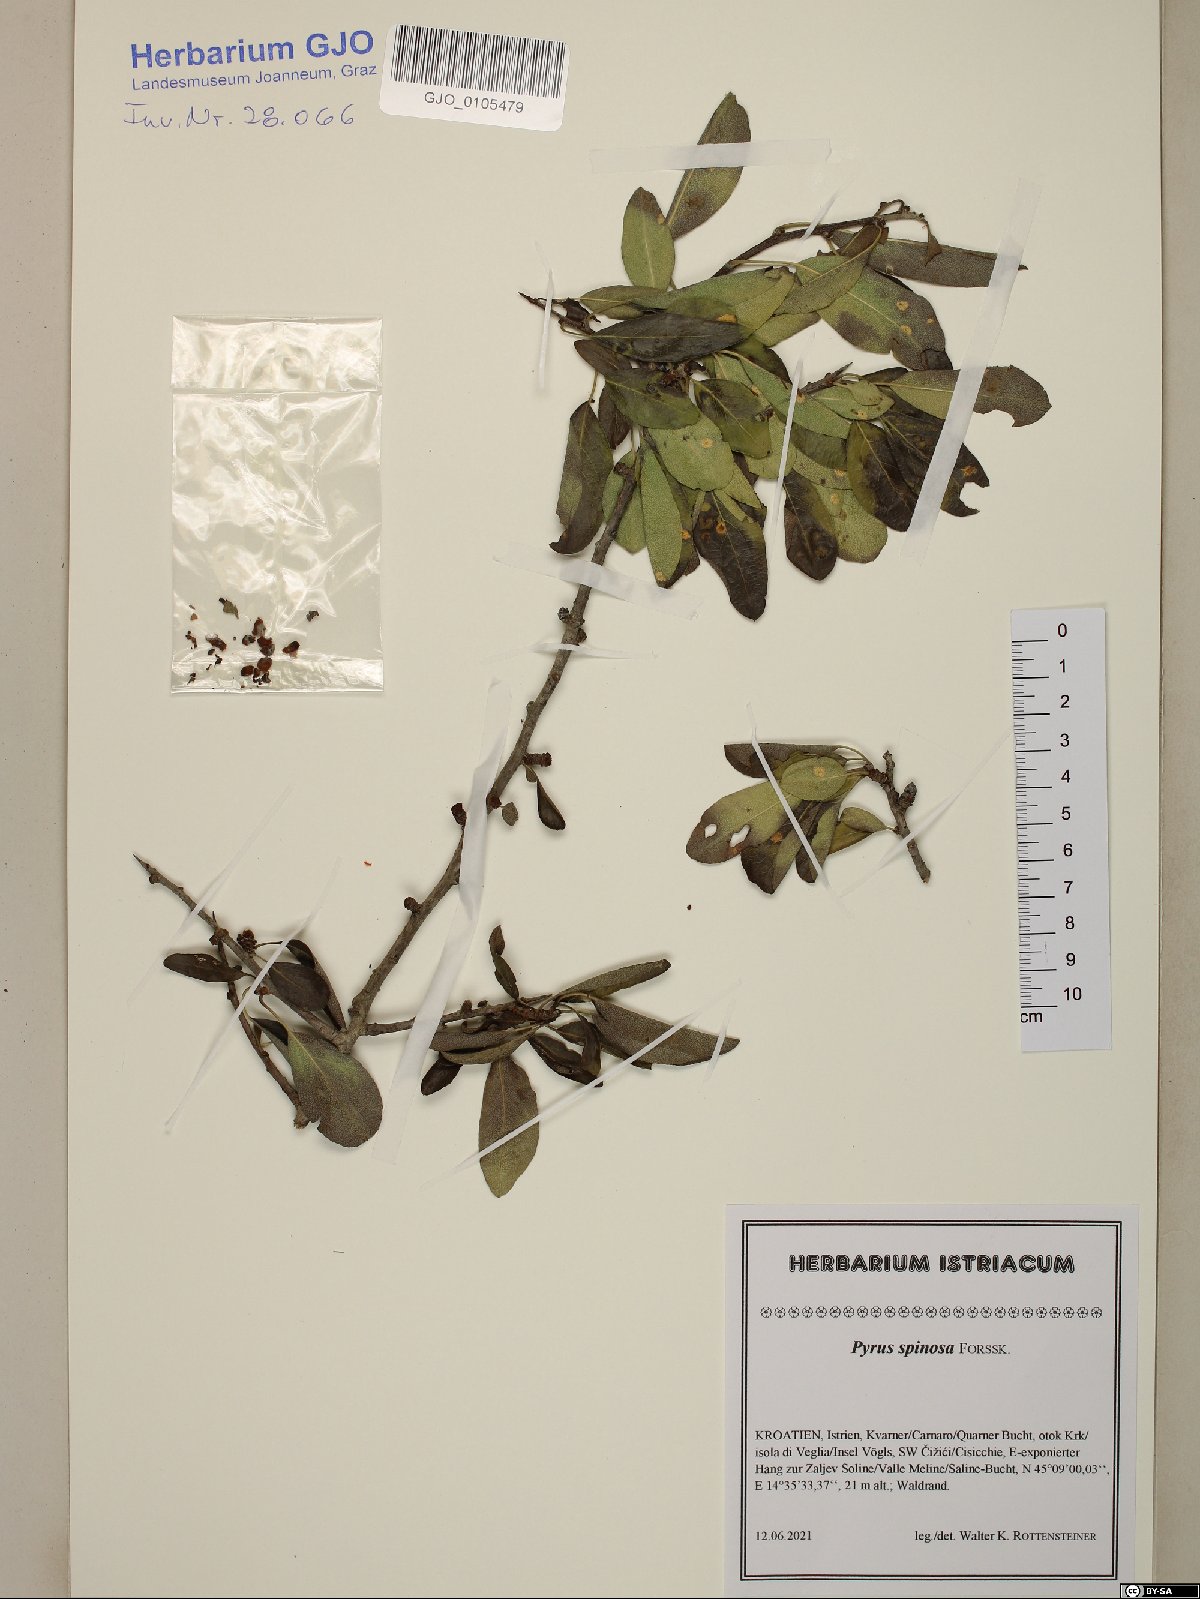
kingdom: Plantae
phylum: Tracheophyta
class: Magnoliopsida
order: Rosales
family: Rosaceae
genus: Pyrus
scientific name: Pyrus spinosa
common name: Almond-leaf pear
